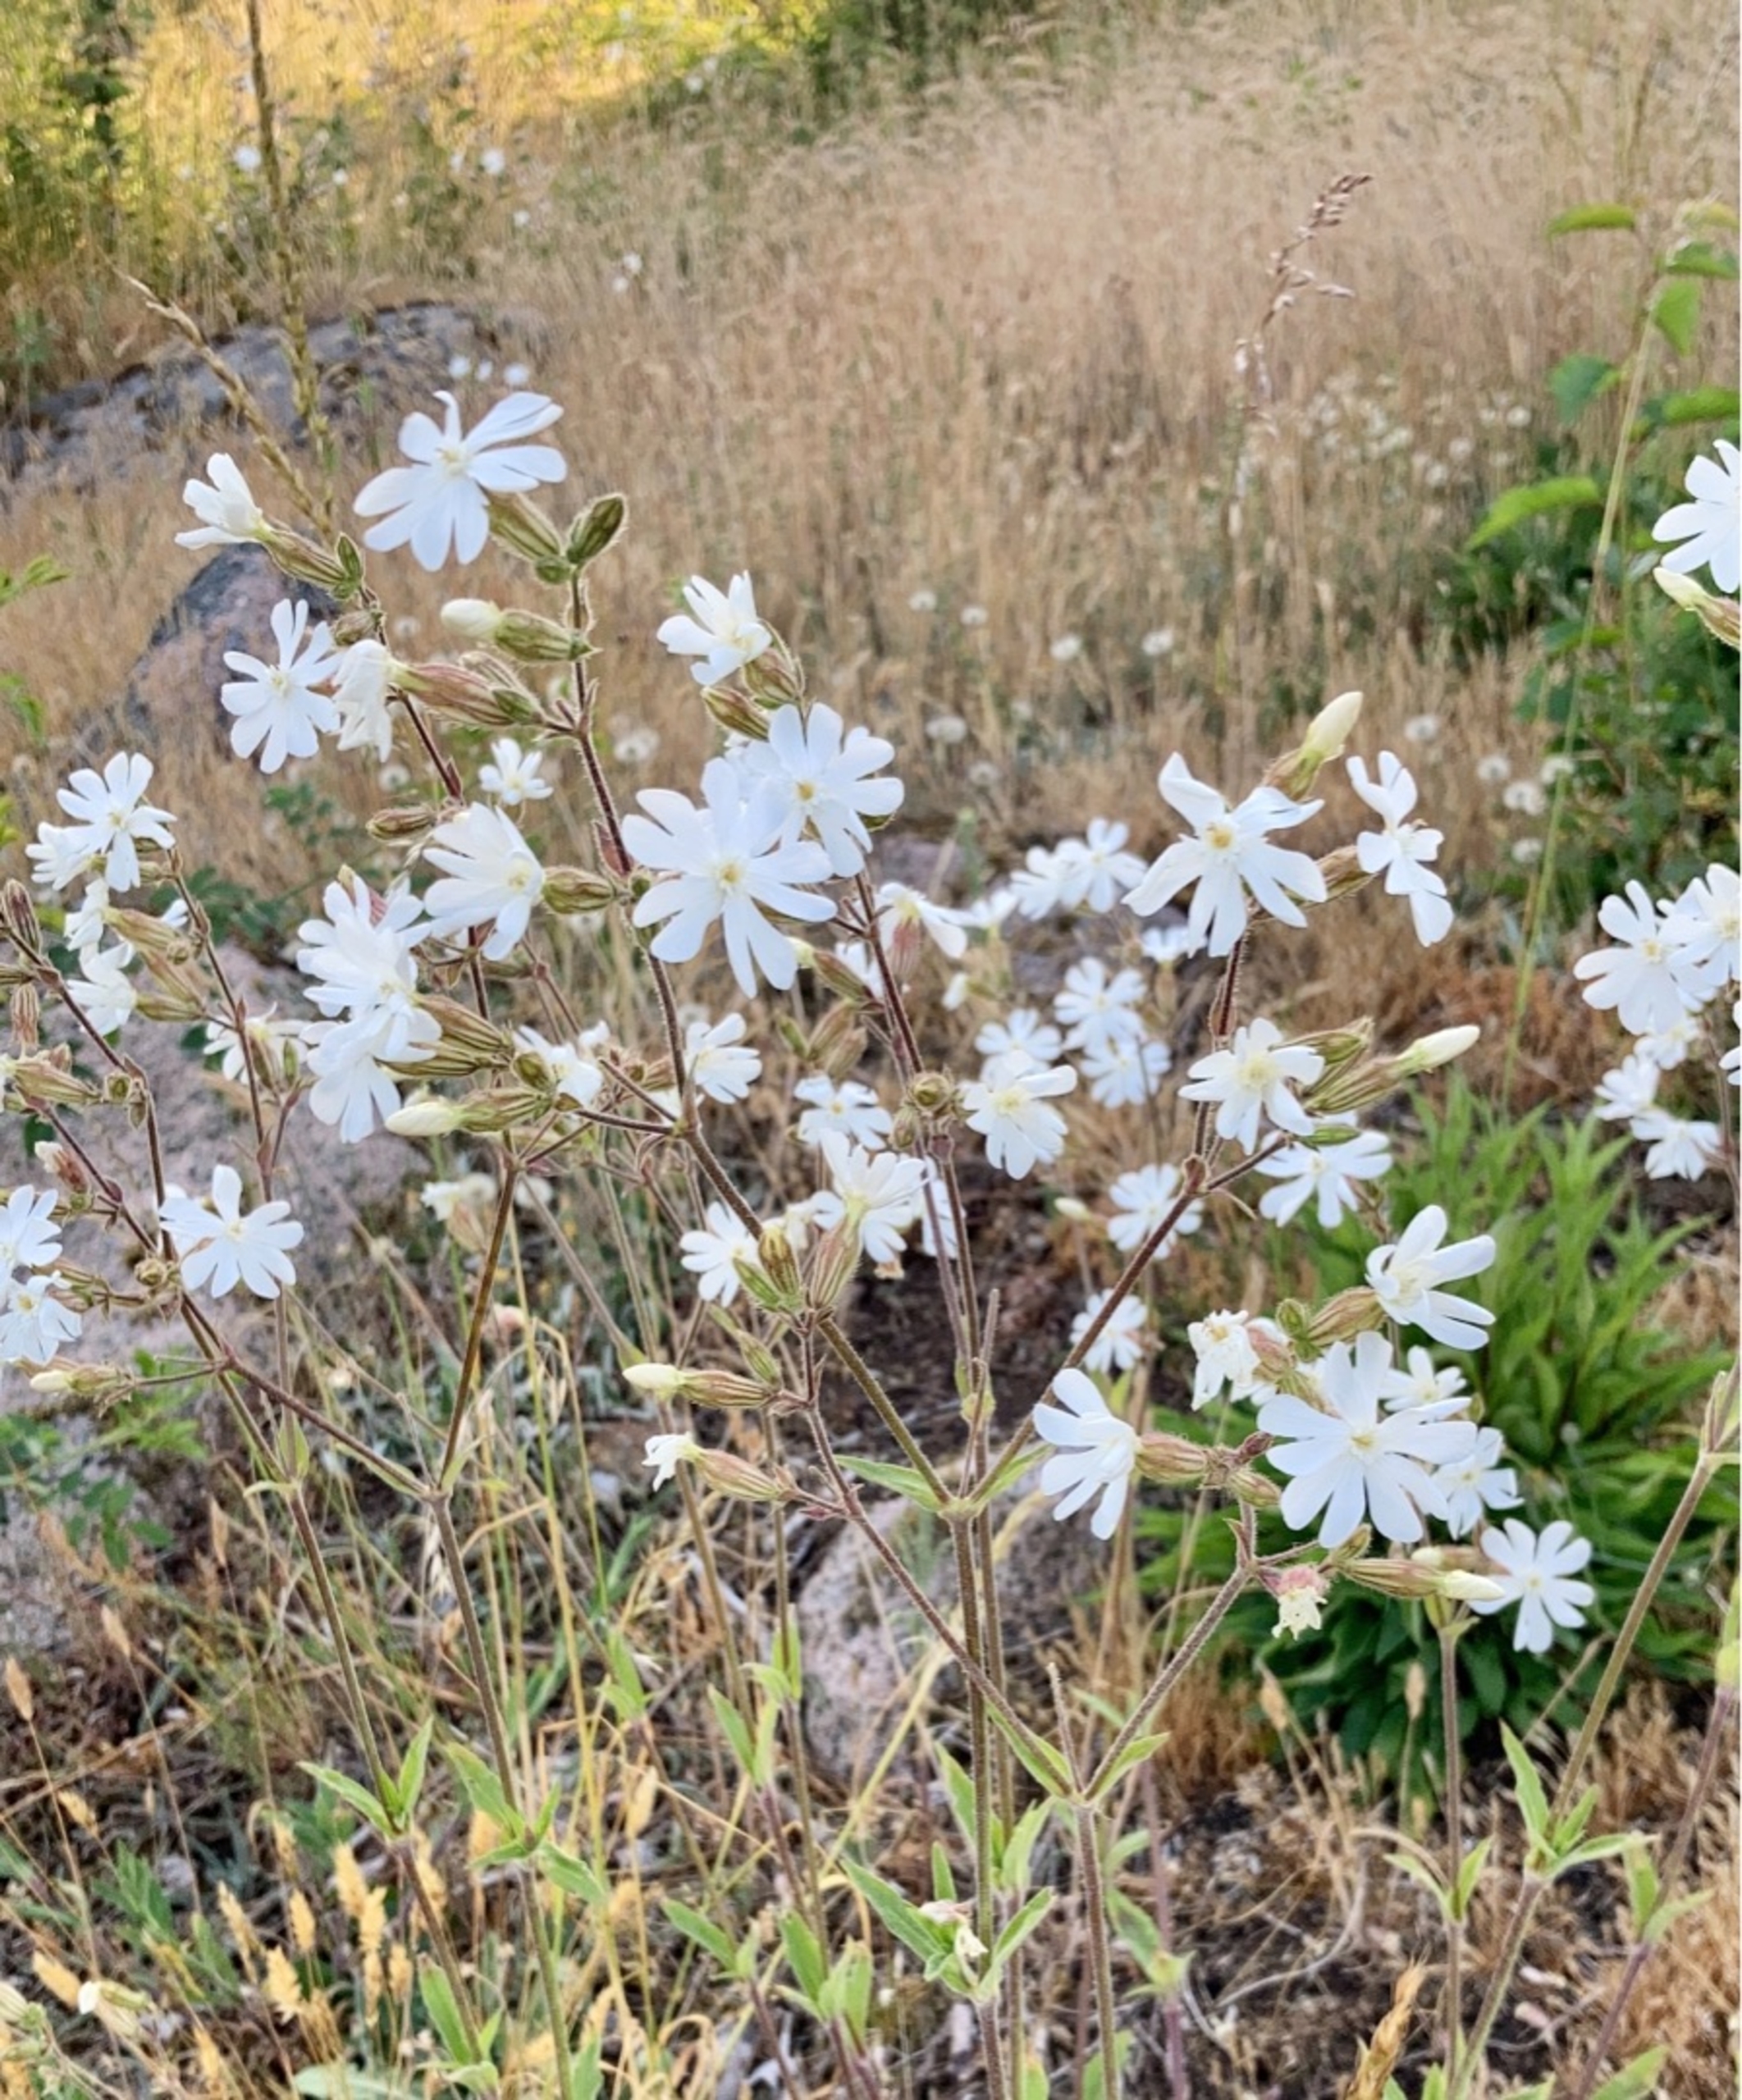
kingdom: Plantae
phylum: Tracheophyta
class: Magnoliopsida
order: Caryophyllales
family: Caryophyllaceae
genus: Silene
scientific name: Silene latifolia
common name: Aftenpragtstjerne
